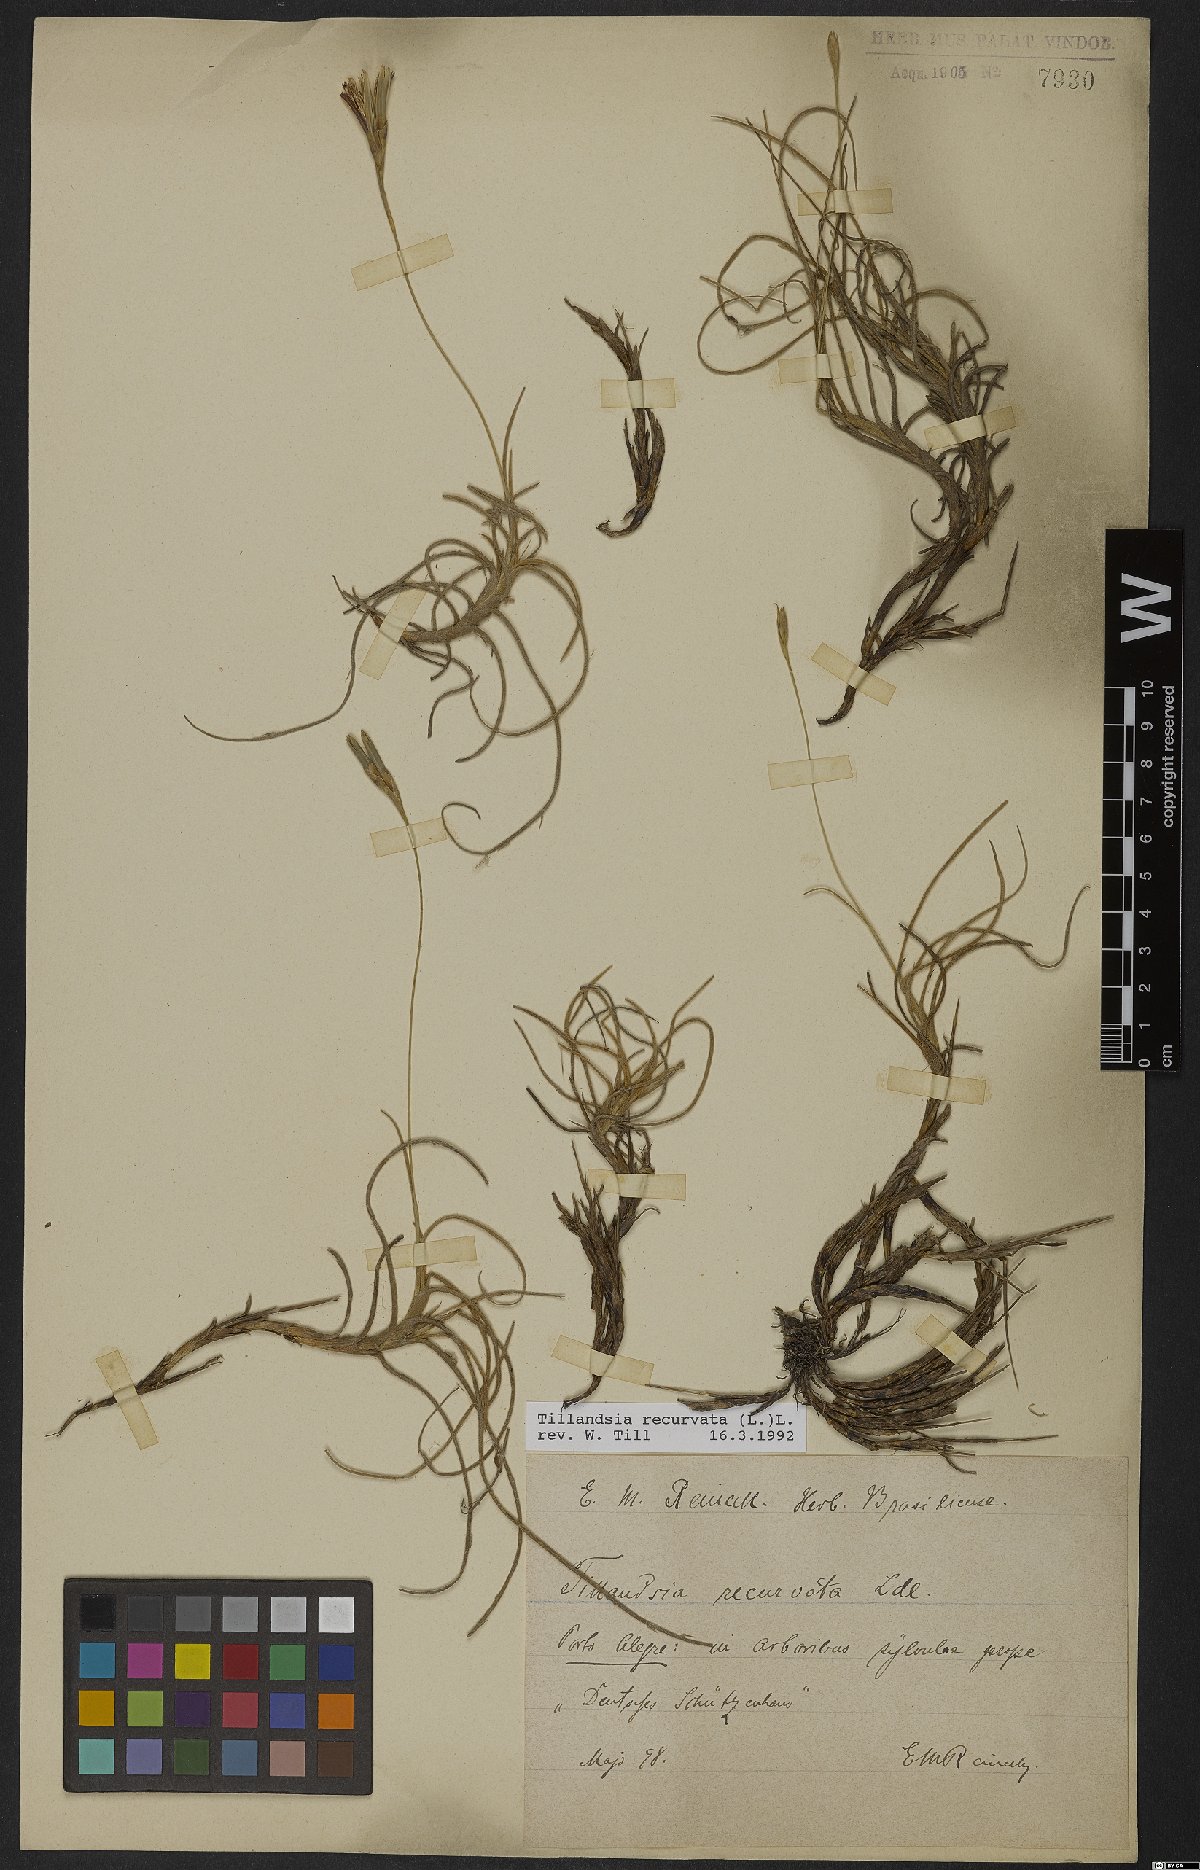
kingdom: Plantae
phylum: Tracheophyta
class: Liliopsida
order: Poales
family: Bromeliaceae
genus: Tillandsia
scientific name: Tillandsia recurvata
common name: Small ballmoss
